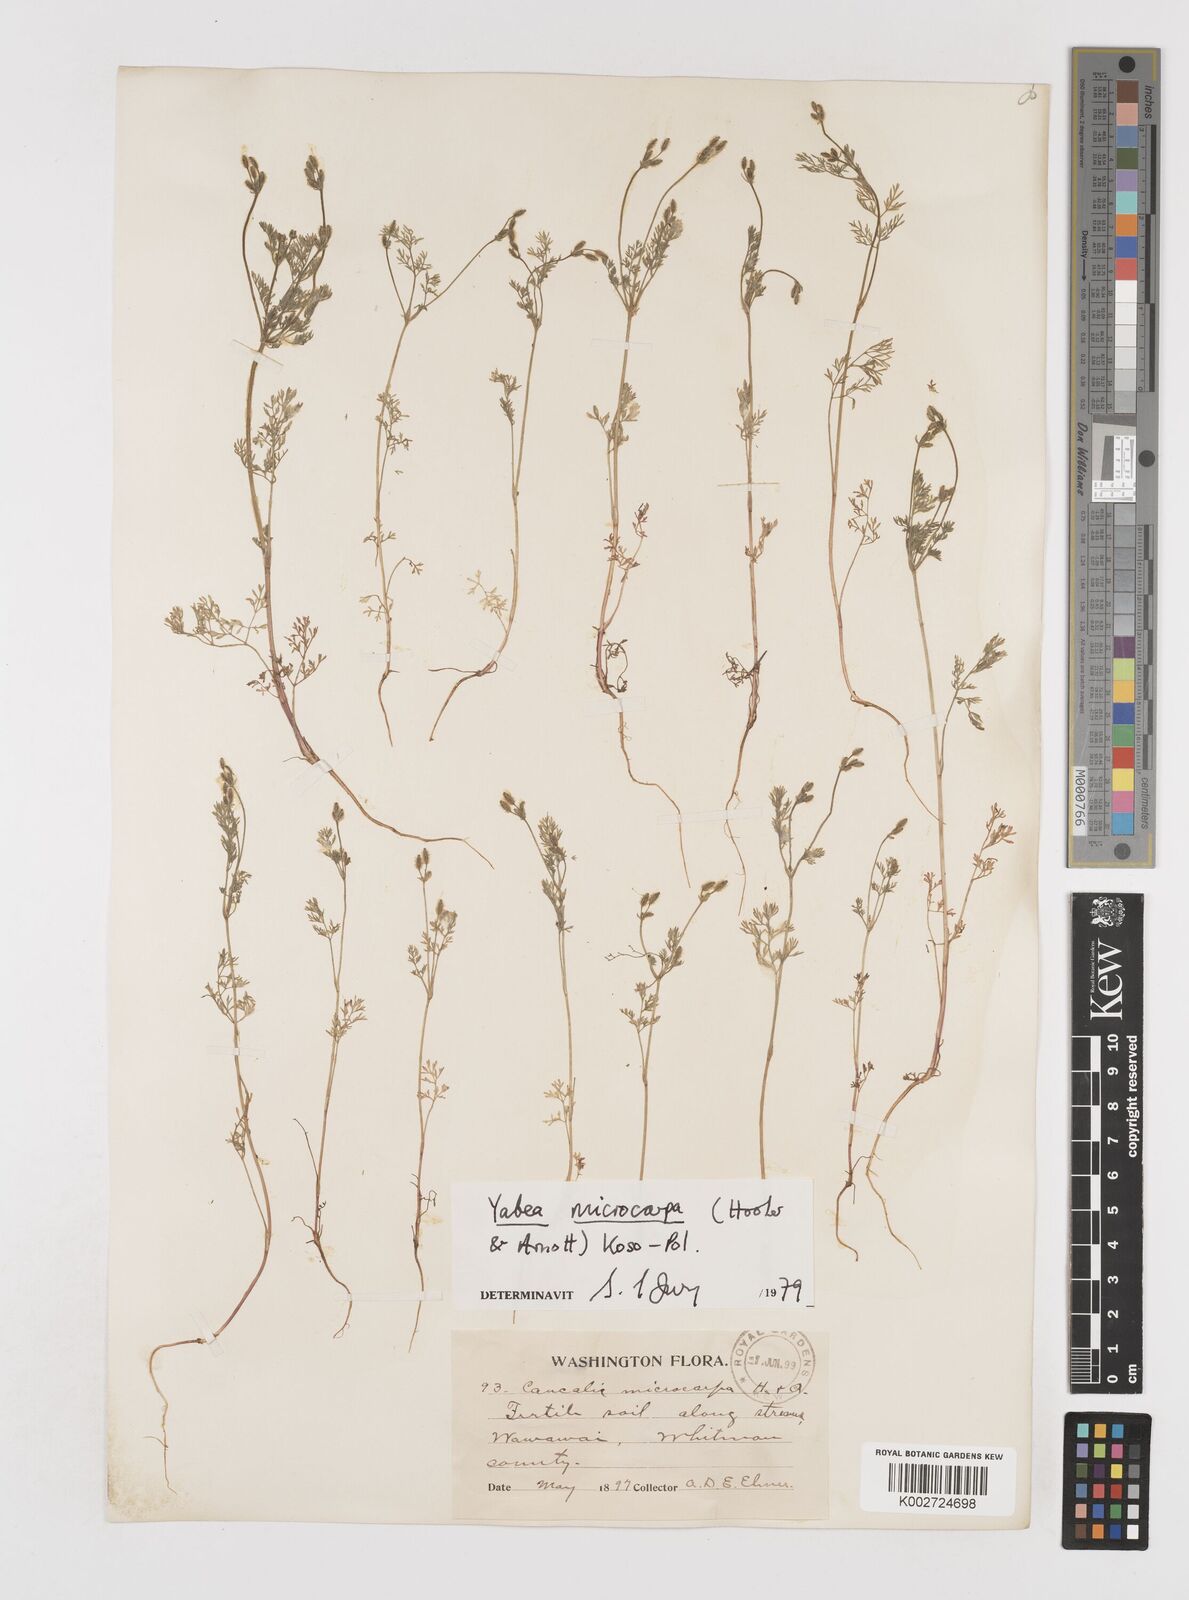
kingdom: Plantae
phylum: Tracheophyta
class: Magnoliopsida
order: Apiales
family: Apiaceae
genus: Yabea
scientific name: Yabea microcarpa
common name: False carrot
